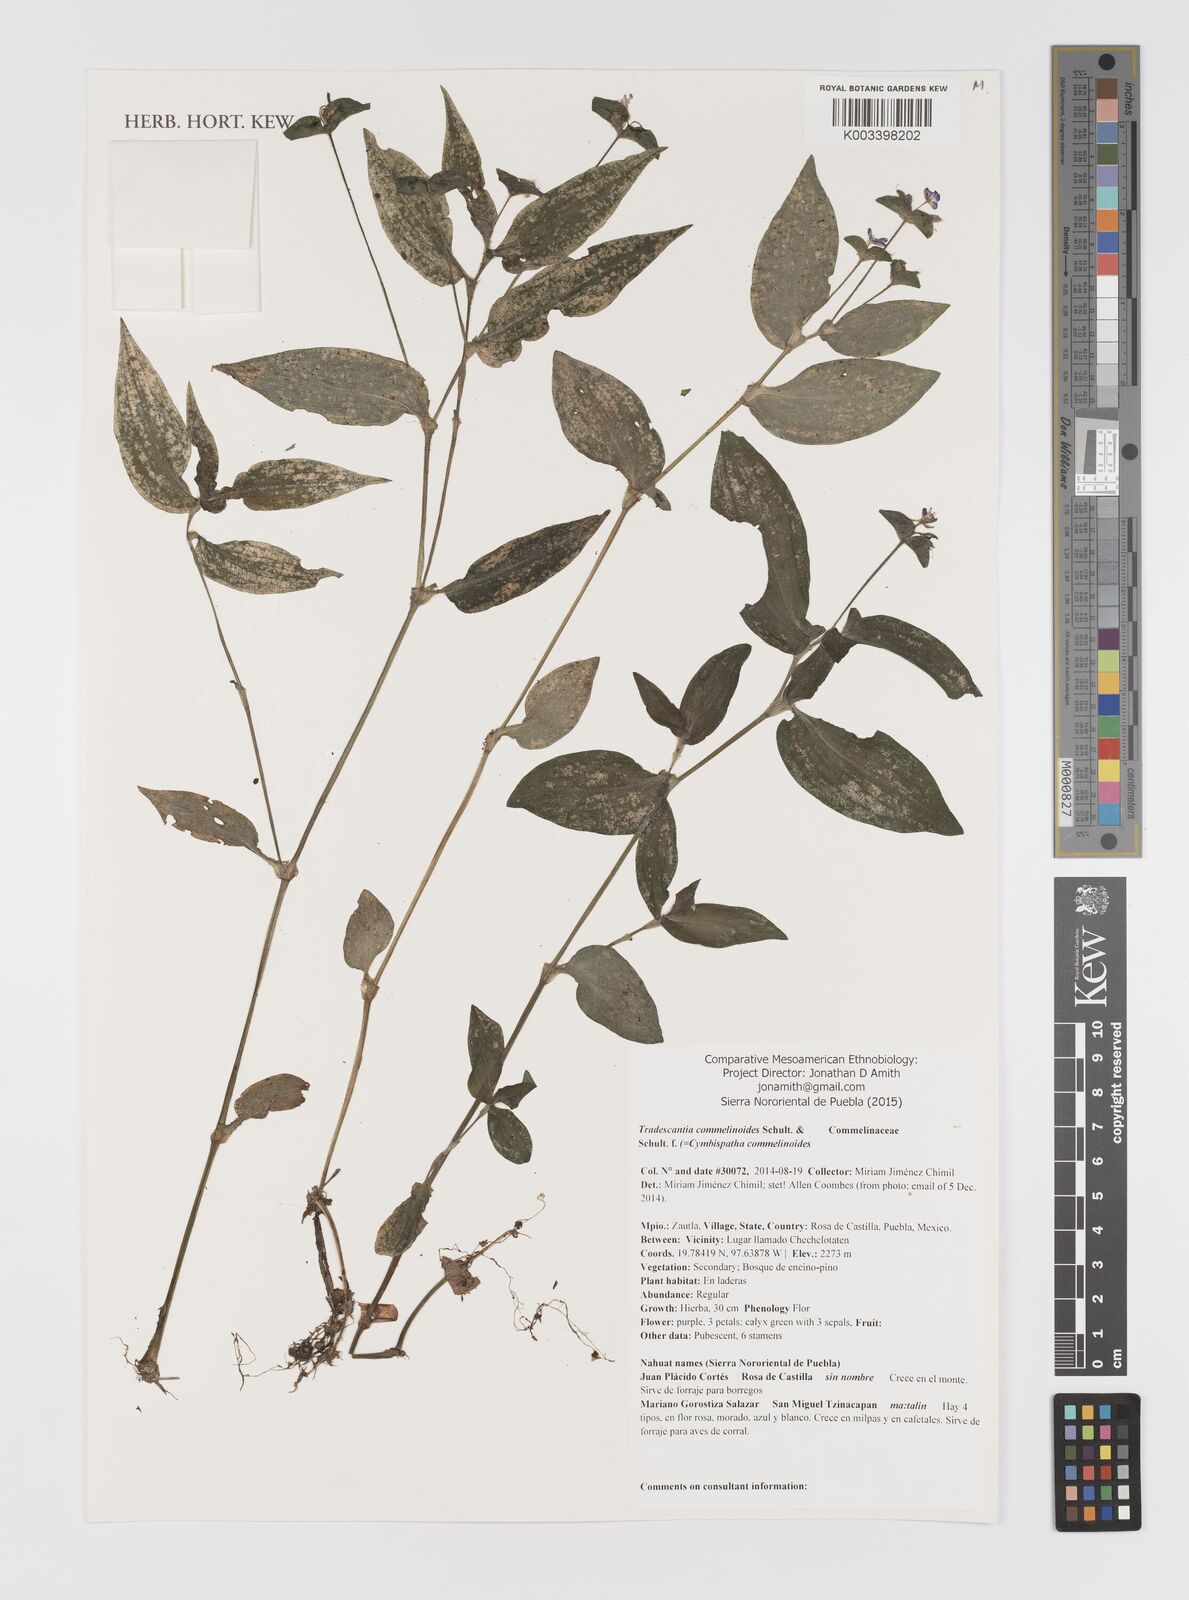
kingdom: Plantae
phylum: Tracheophyta
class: Liliopsida
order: Commelinales
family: Commelinaceae
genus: Tradescantia
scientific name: Tradescantia commelinoides
